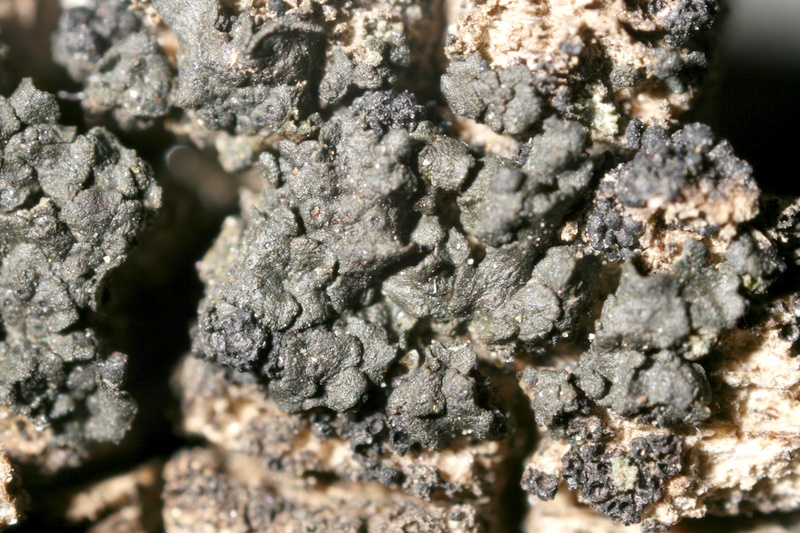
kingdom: Fungi
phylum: Ascomycota
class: Lichinomycetes
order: Lichinales
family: Peltulaceae
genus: Phyllopeltula
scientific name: Phyllopeltula corticola
